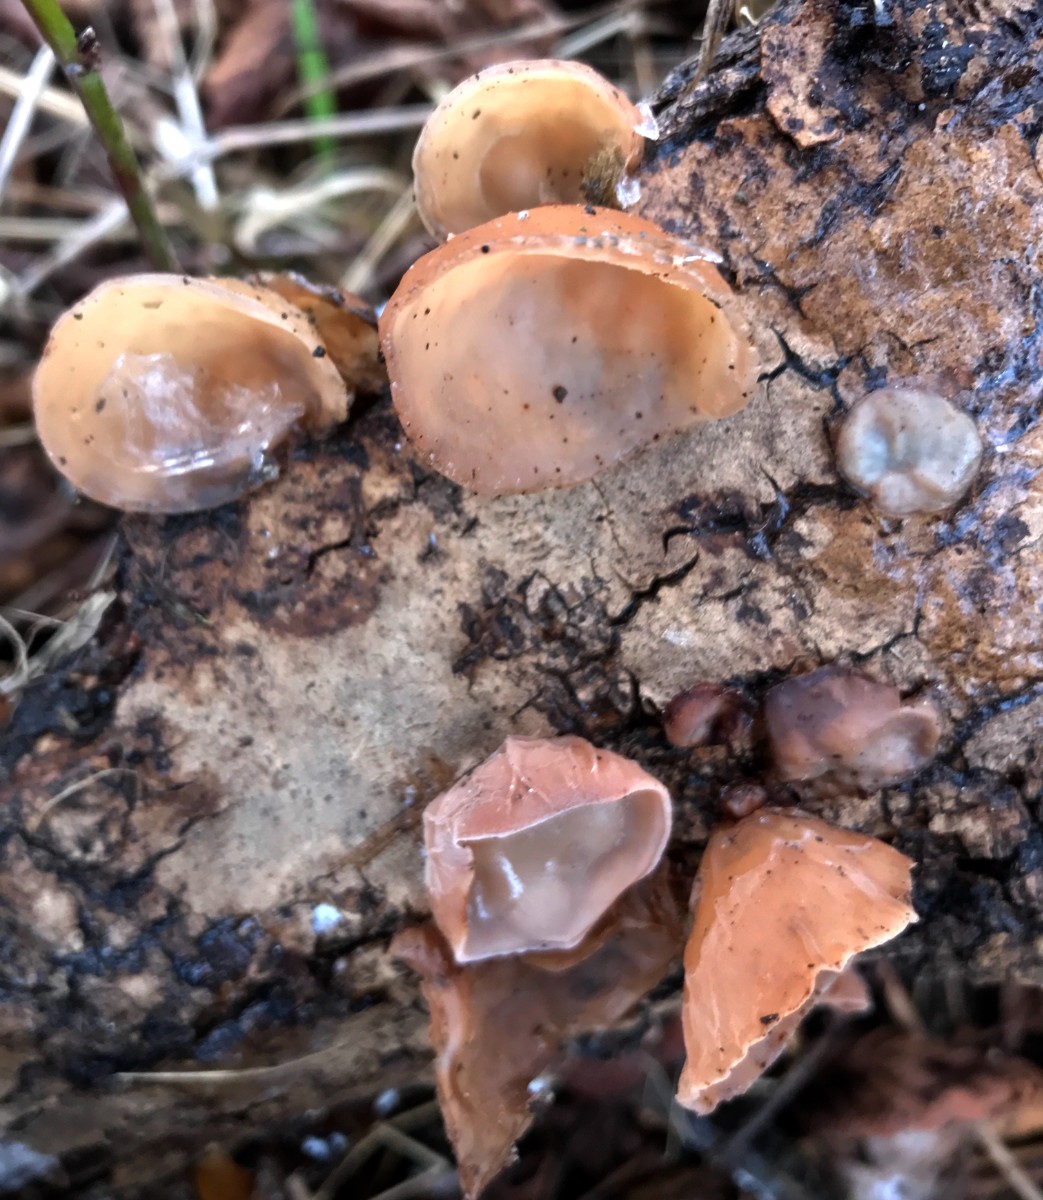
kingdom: Fungi
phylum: Basidiomycota
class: Agaricomycetes
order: Auriculariales
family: Auriculariaceae
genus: Auricularia
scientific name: Auricularia auricula-judae
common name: almindelig judasøre
